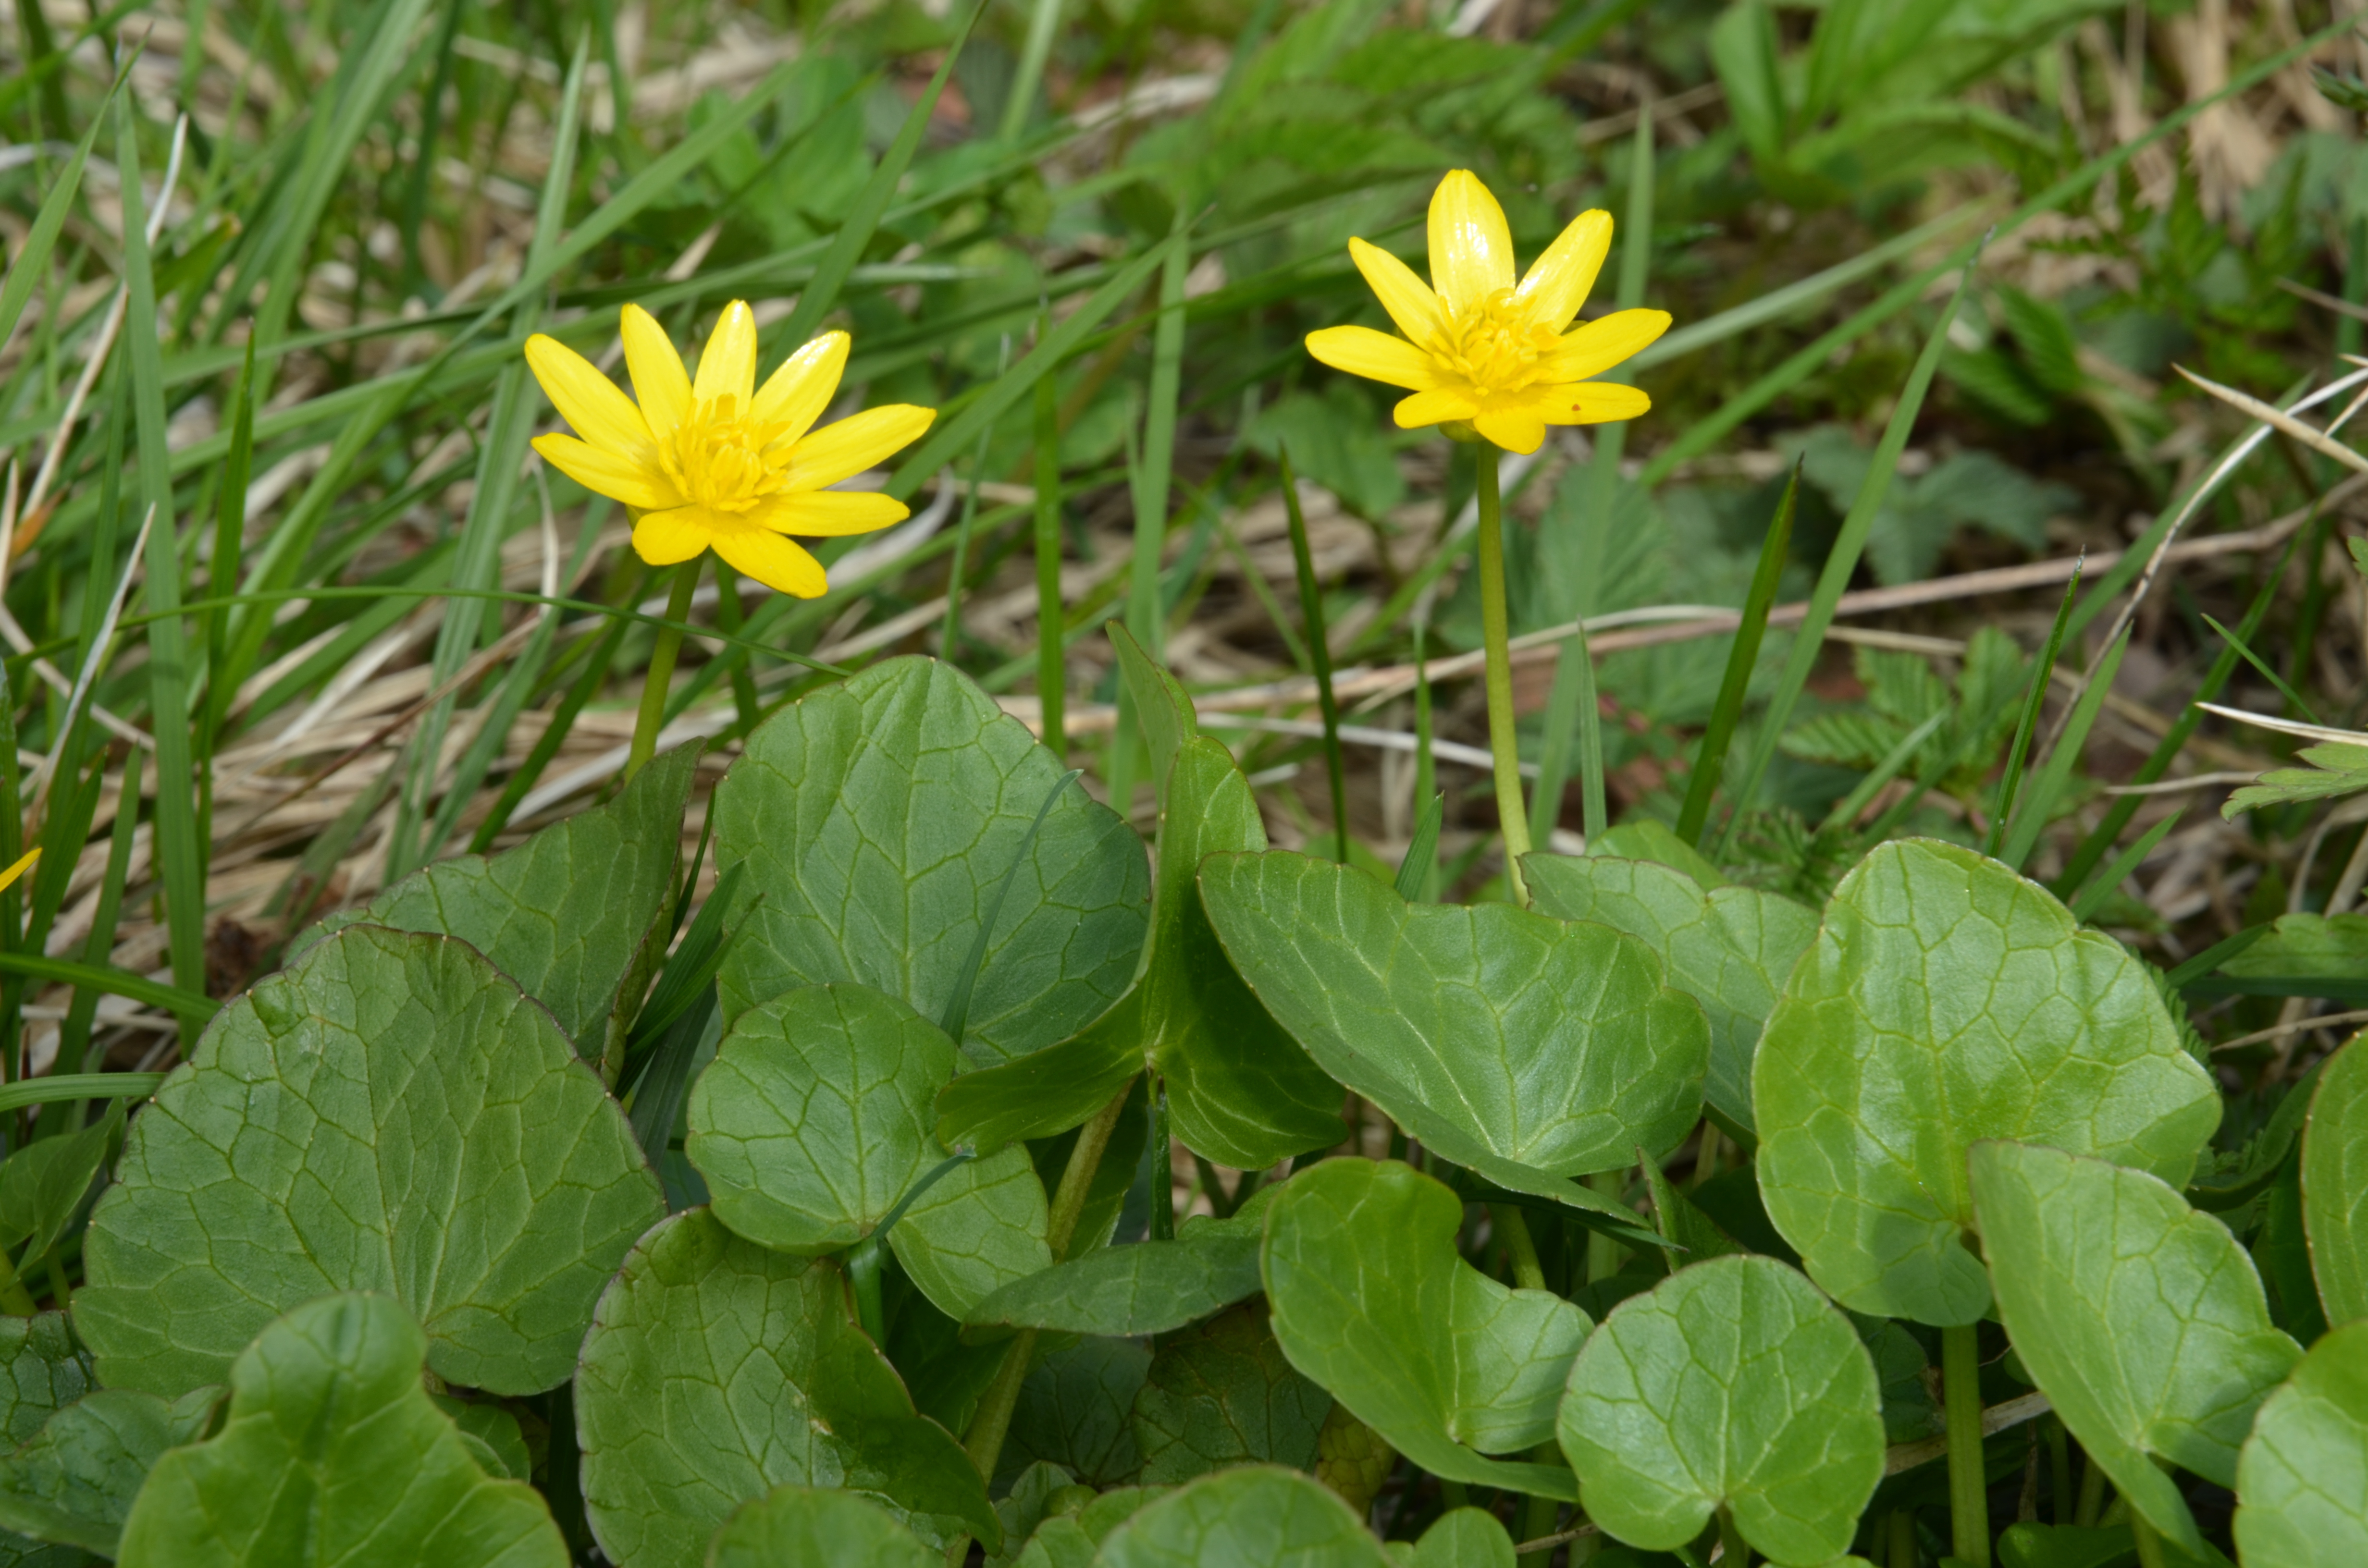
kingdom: Plantae
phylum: Tracheophyta
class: Magnoliopsida
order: Ranunculales
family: Ranunculaceae
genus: Ficaria
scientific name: Ficaria verna
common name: Lesser celandine
